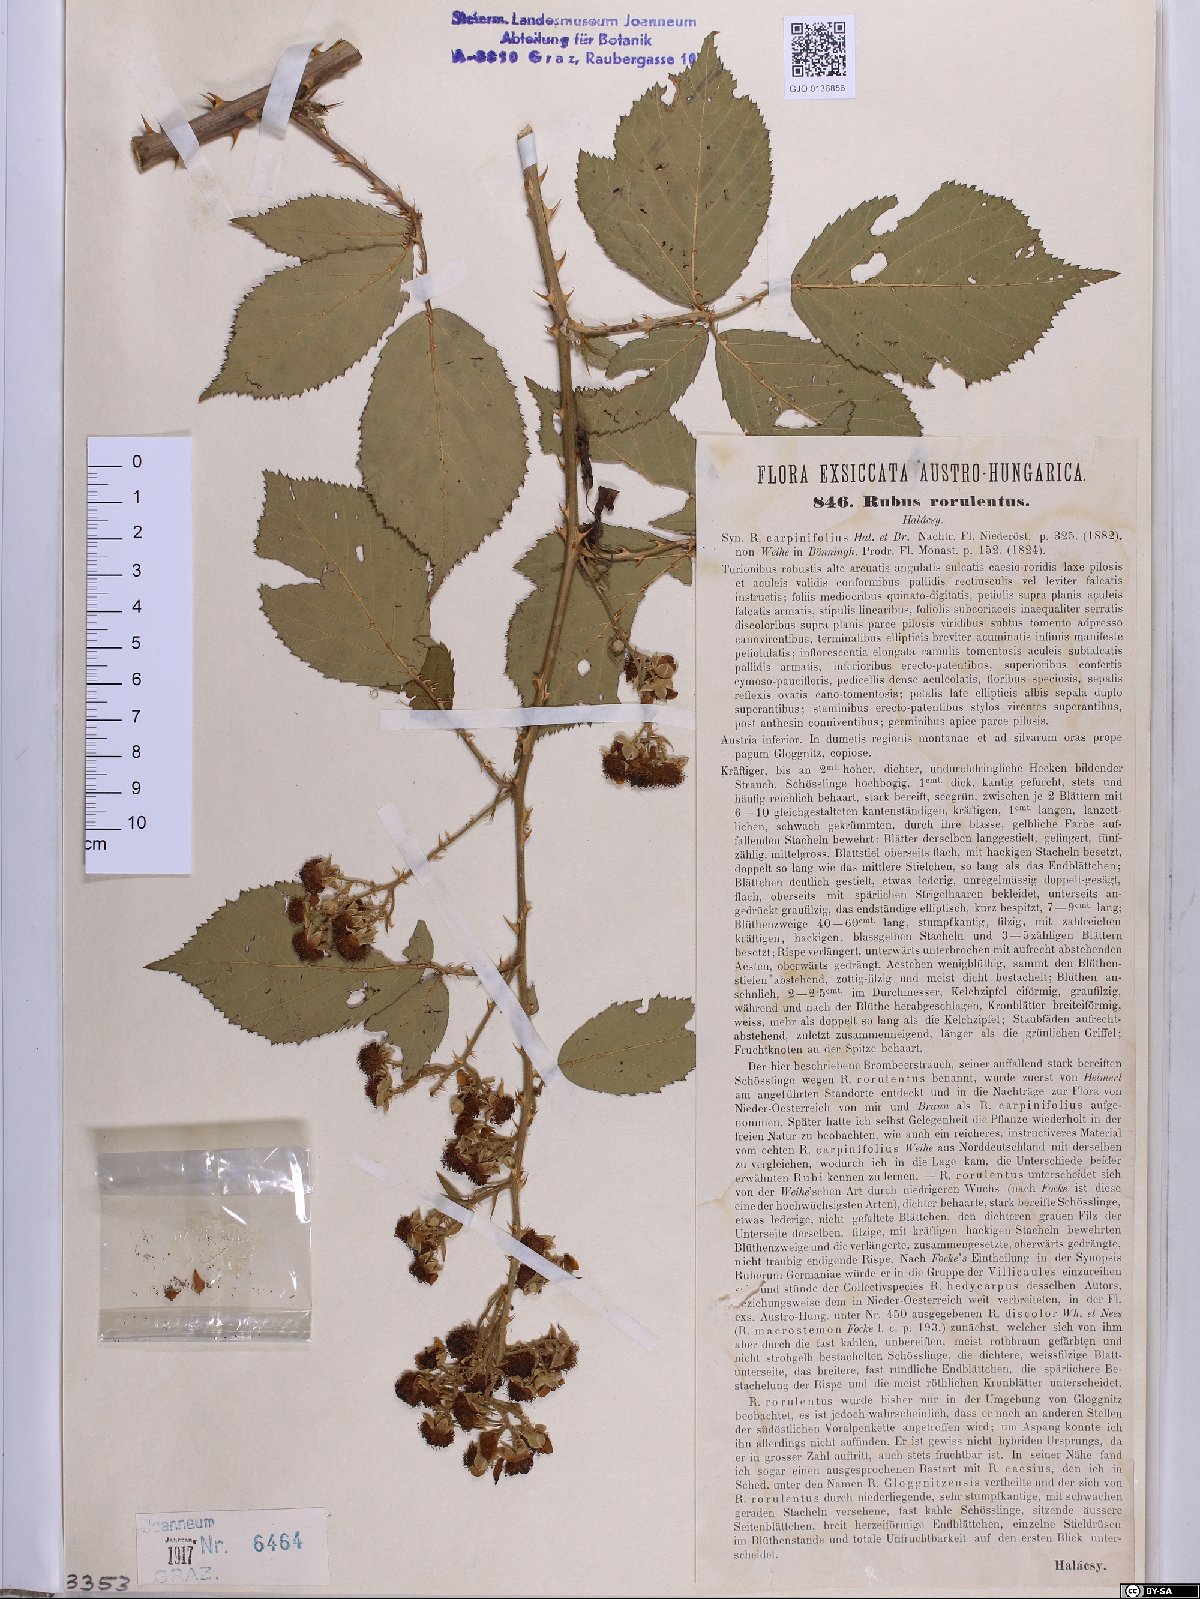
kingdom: Plantae
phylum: Tracheophyta
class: Magnoliopsida
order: Rosales
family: Rosaceae
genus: Rubus
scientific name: Rubus rorulentus
